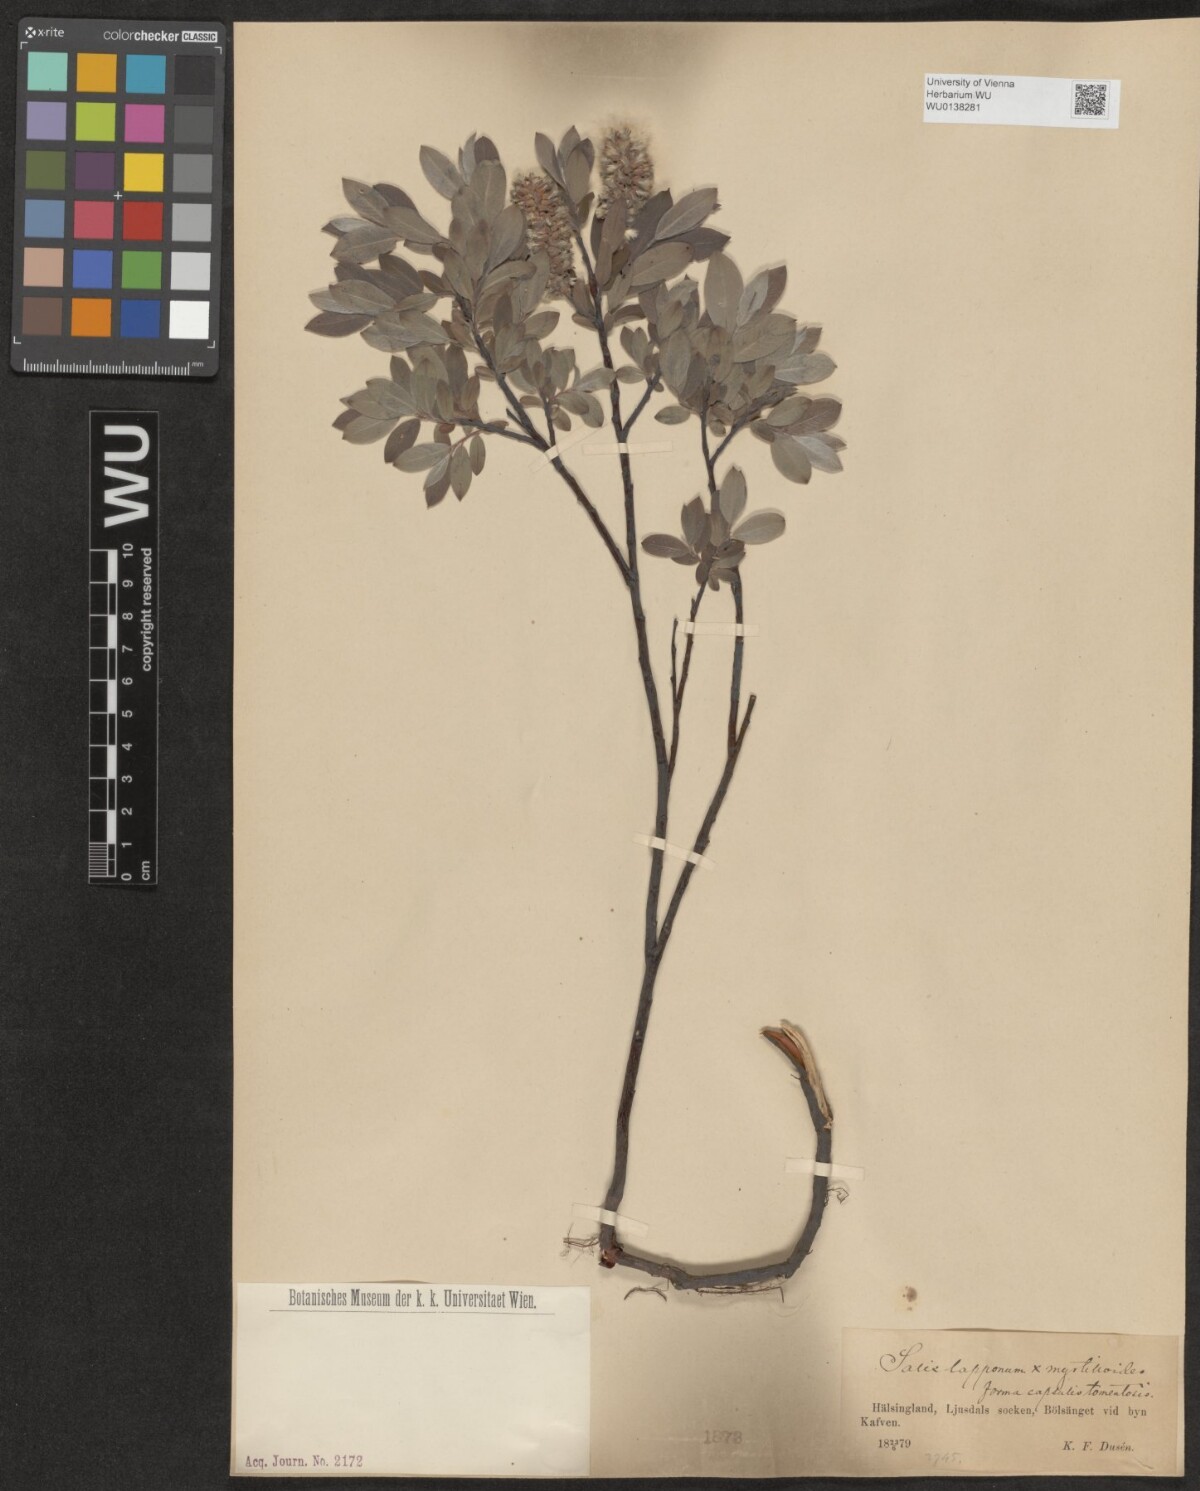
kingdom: Plantae
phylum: Tracheophyta
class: Magnoliopsida
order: Malpighiales
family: Salicaceae
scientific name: Salicaceae
